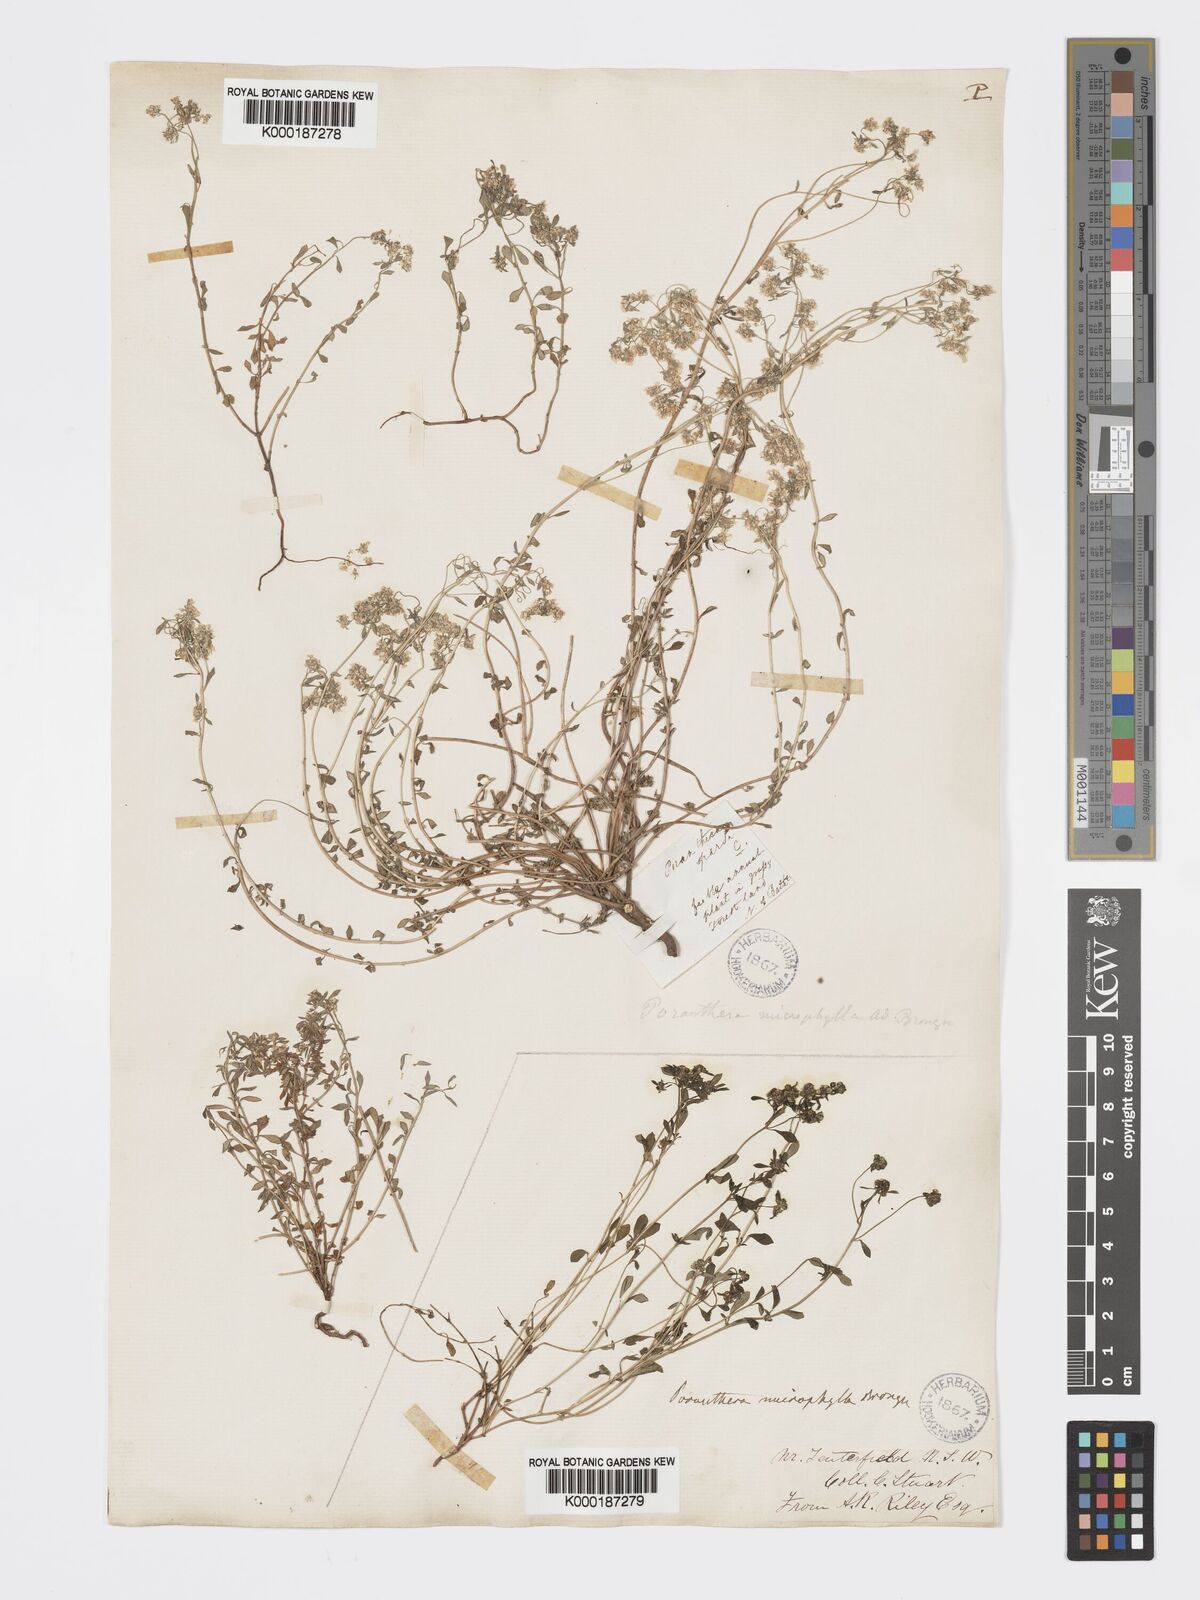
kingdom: Plantae
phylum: Tracheophyta
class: Magnoliopsida
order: Malpighiales
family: Phyllanthaceae
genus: Poranthera
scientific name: Poranthera microphylla
